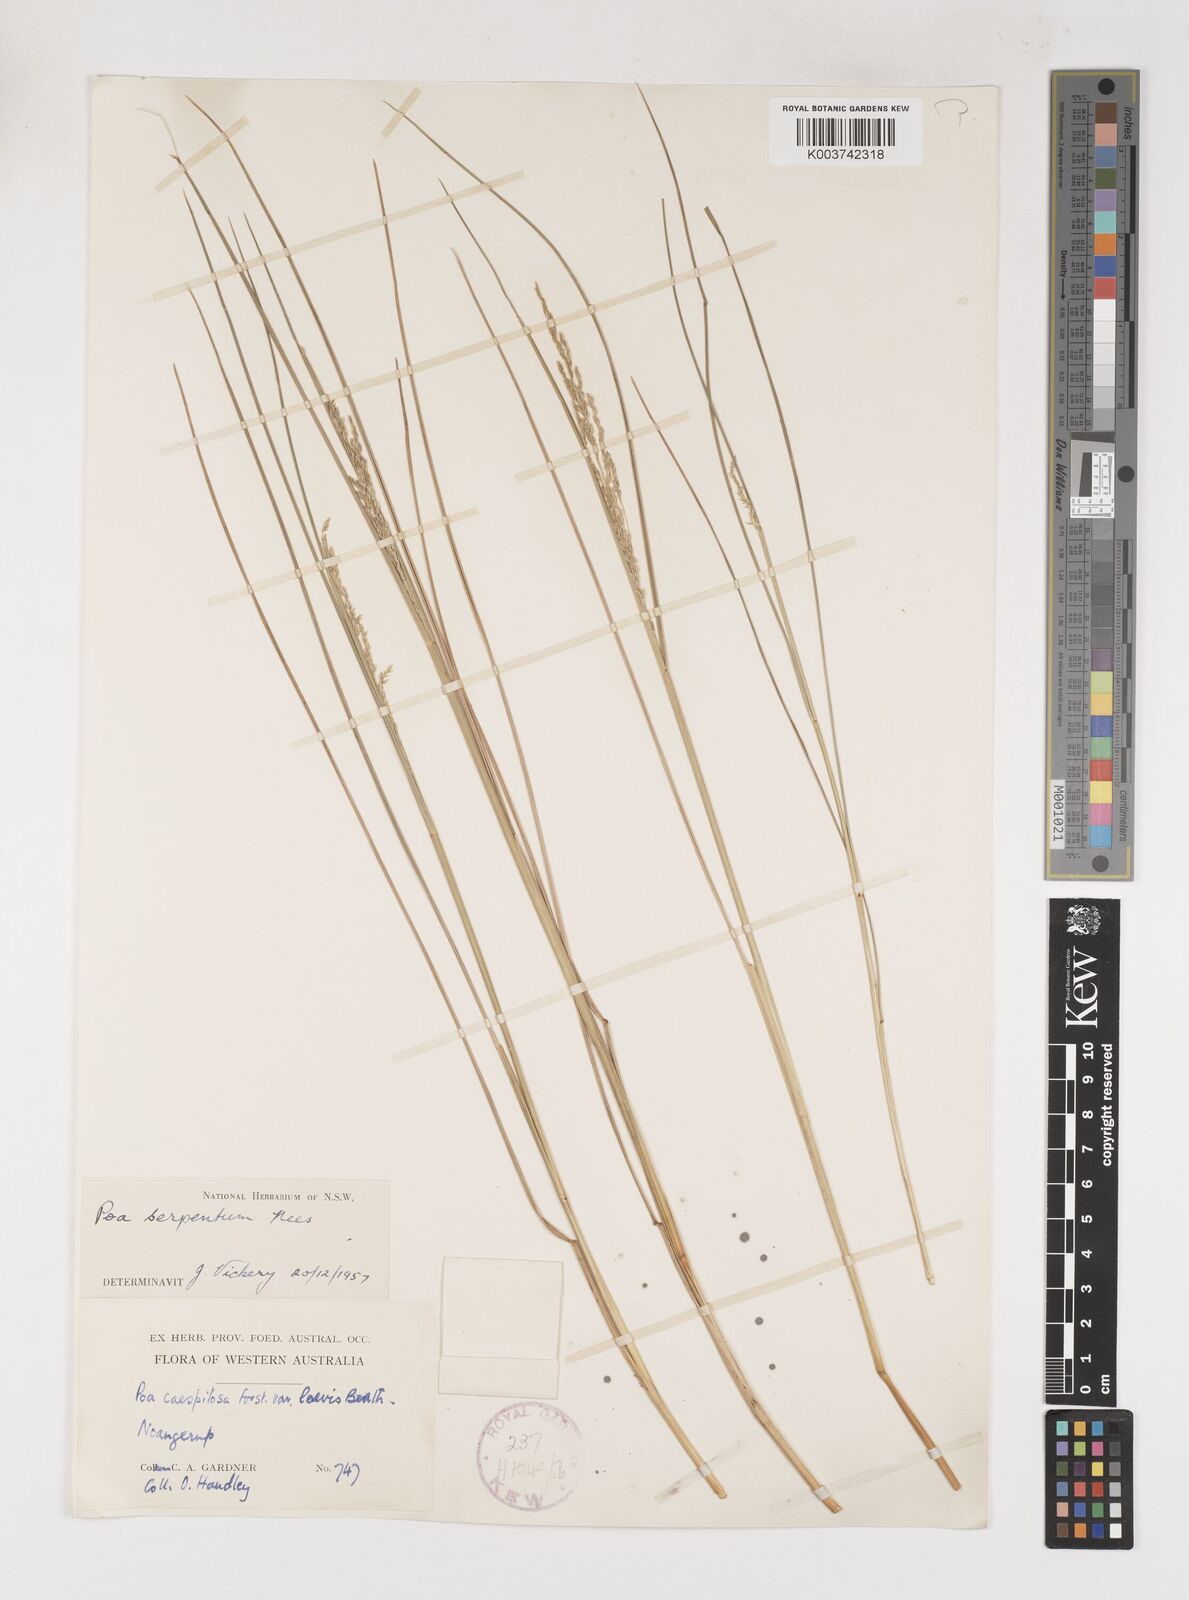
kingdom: Plantae
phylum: Tracheophyta
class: Liliopsida
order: Poales
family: Poaceae
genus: Poa
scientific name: Poa porphyroclados
